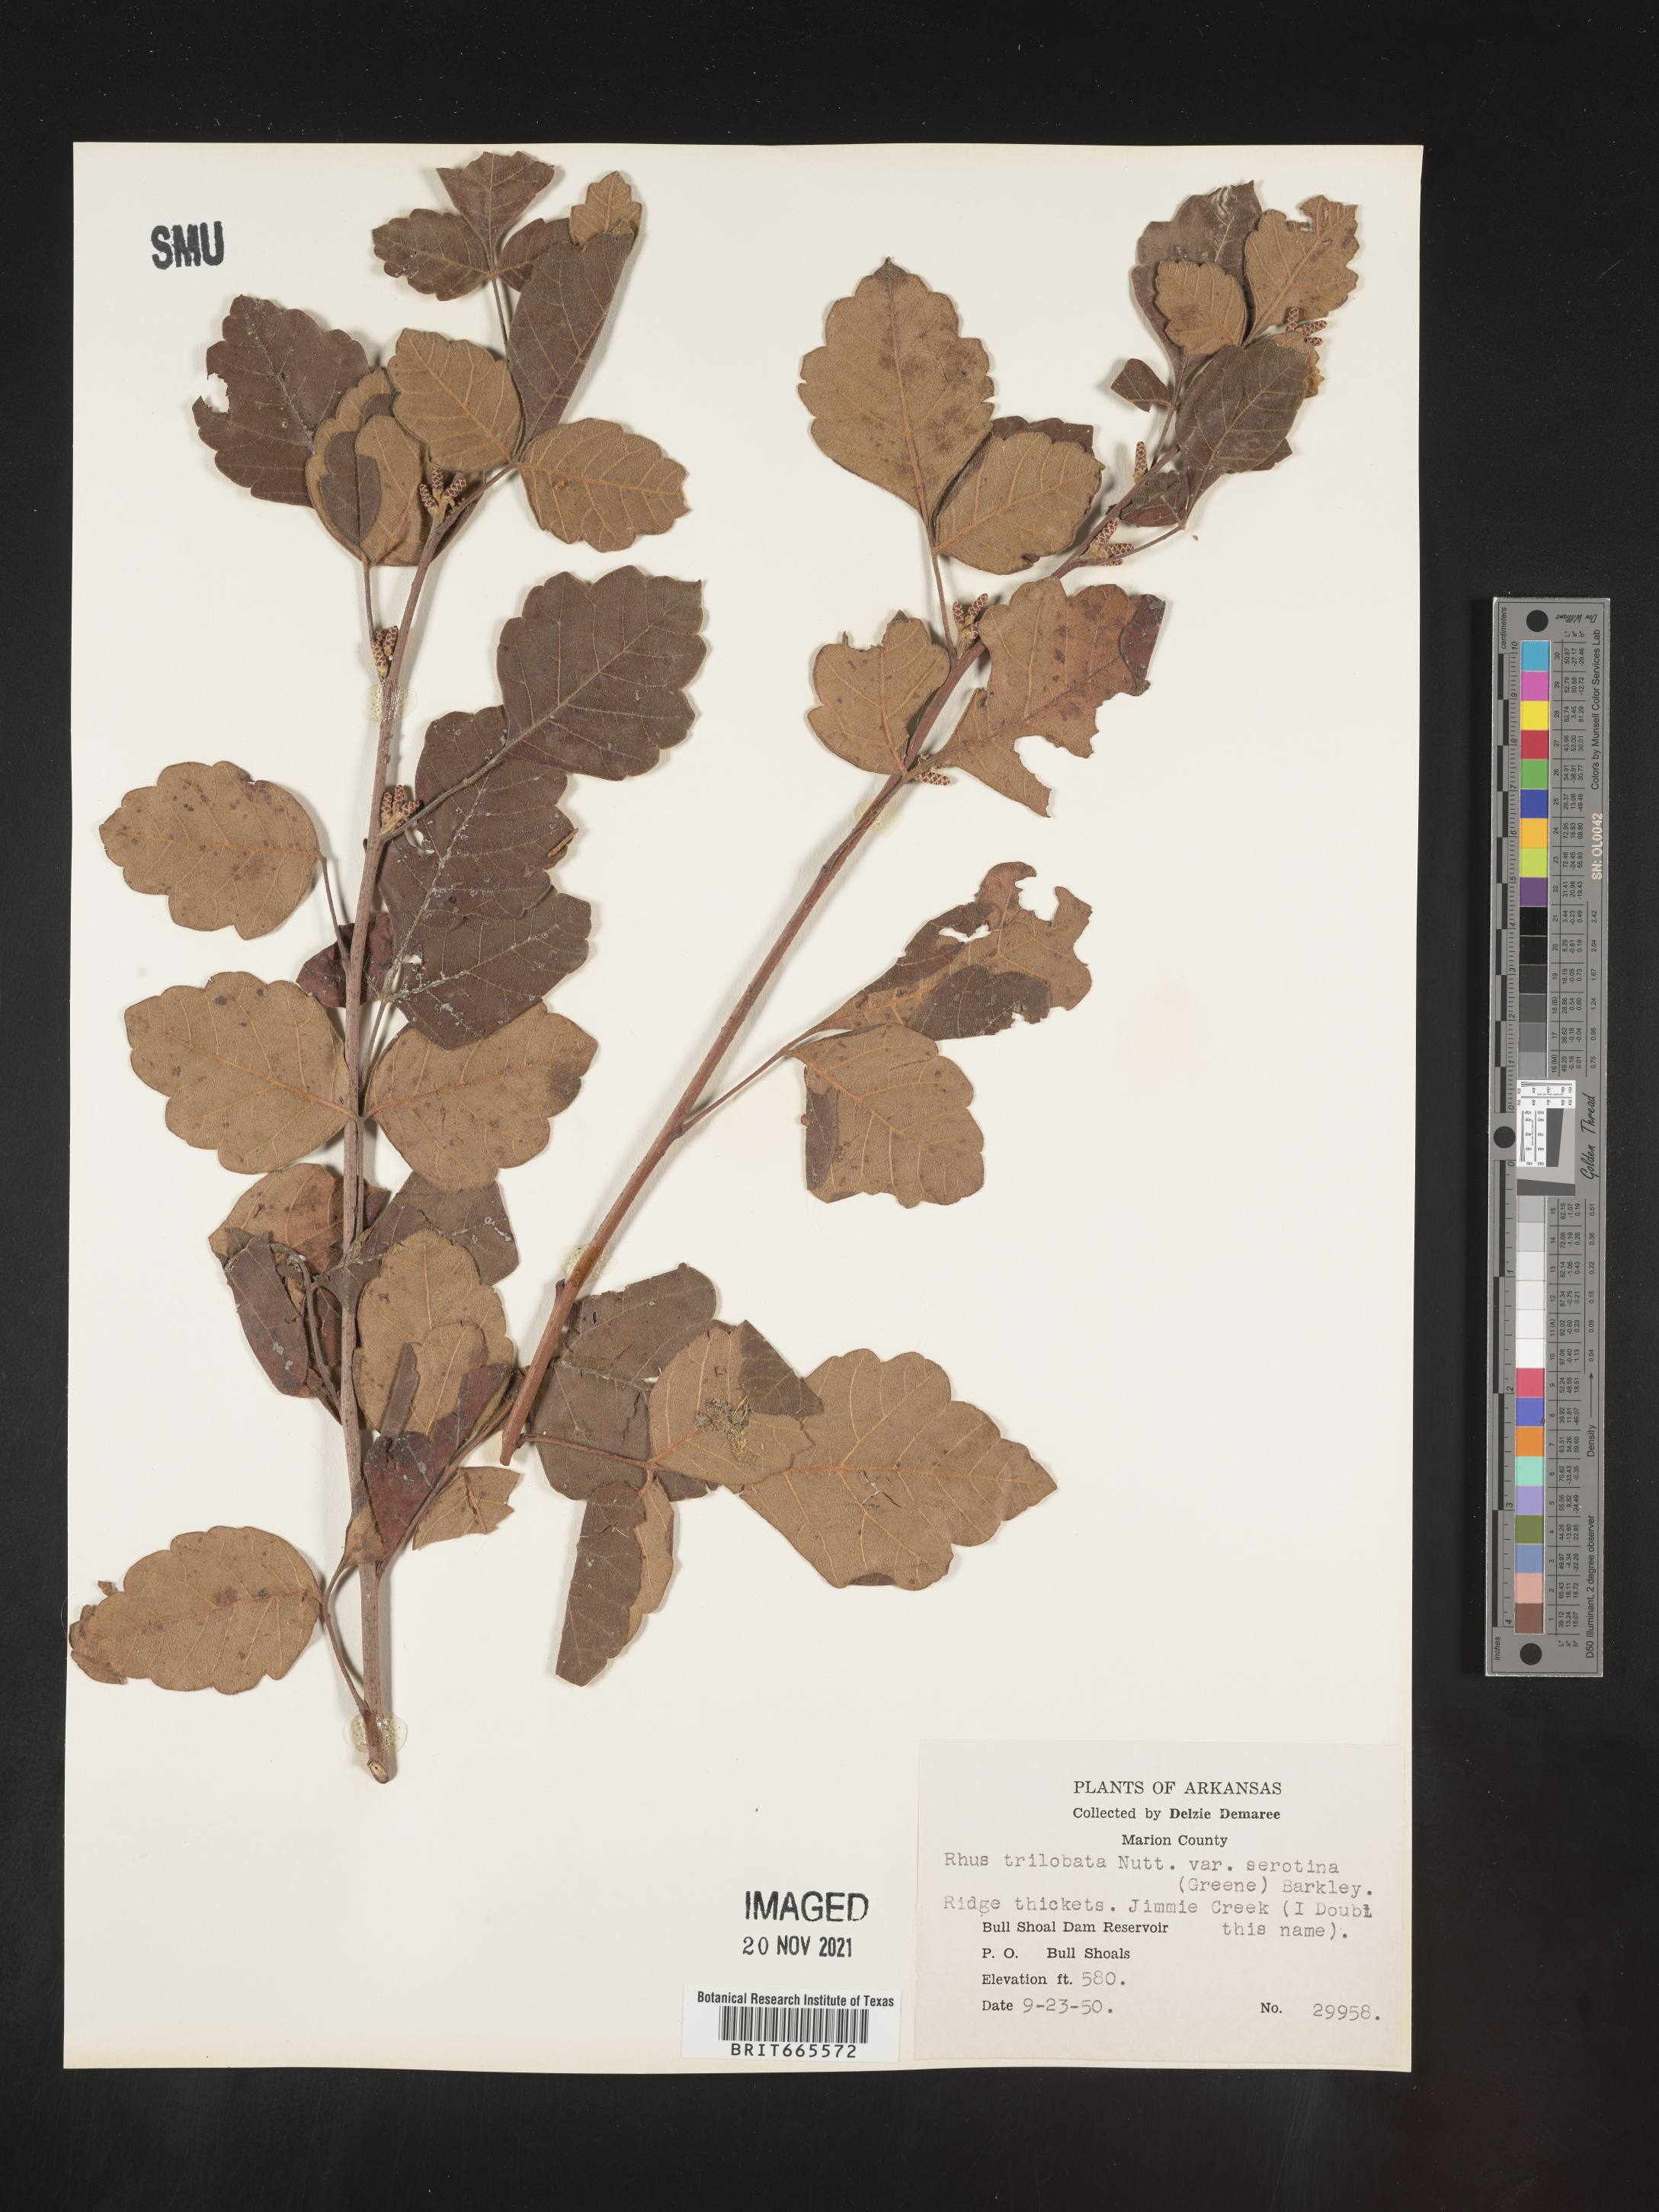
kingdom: Plantae
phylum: Tracheophyta
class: Magnoliopsida
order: Sapindales
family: Anacardiaceae
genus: Rhus
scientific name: Rhus aromatica
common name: Aromatic sumac
